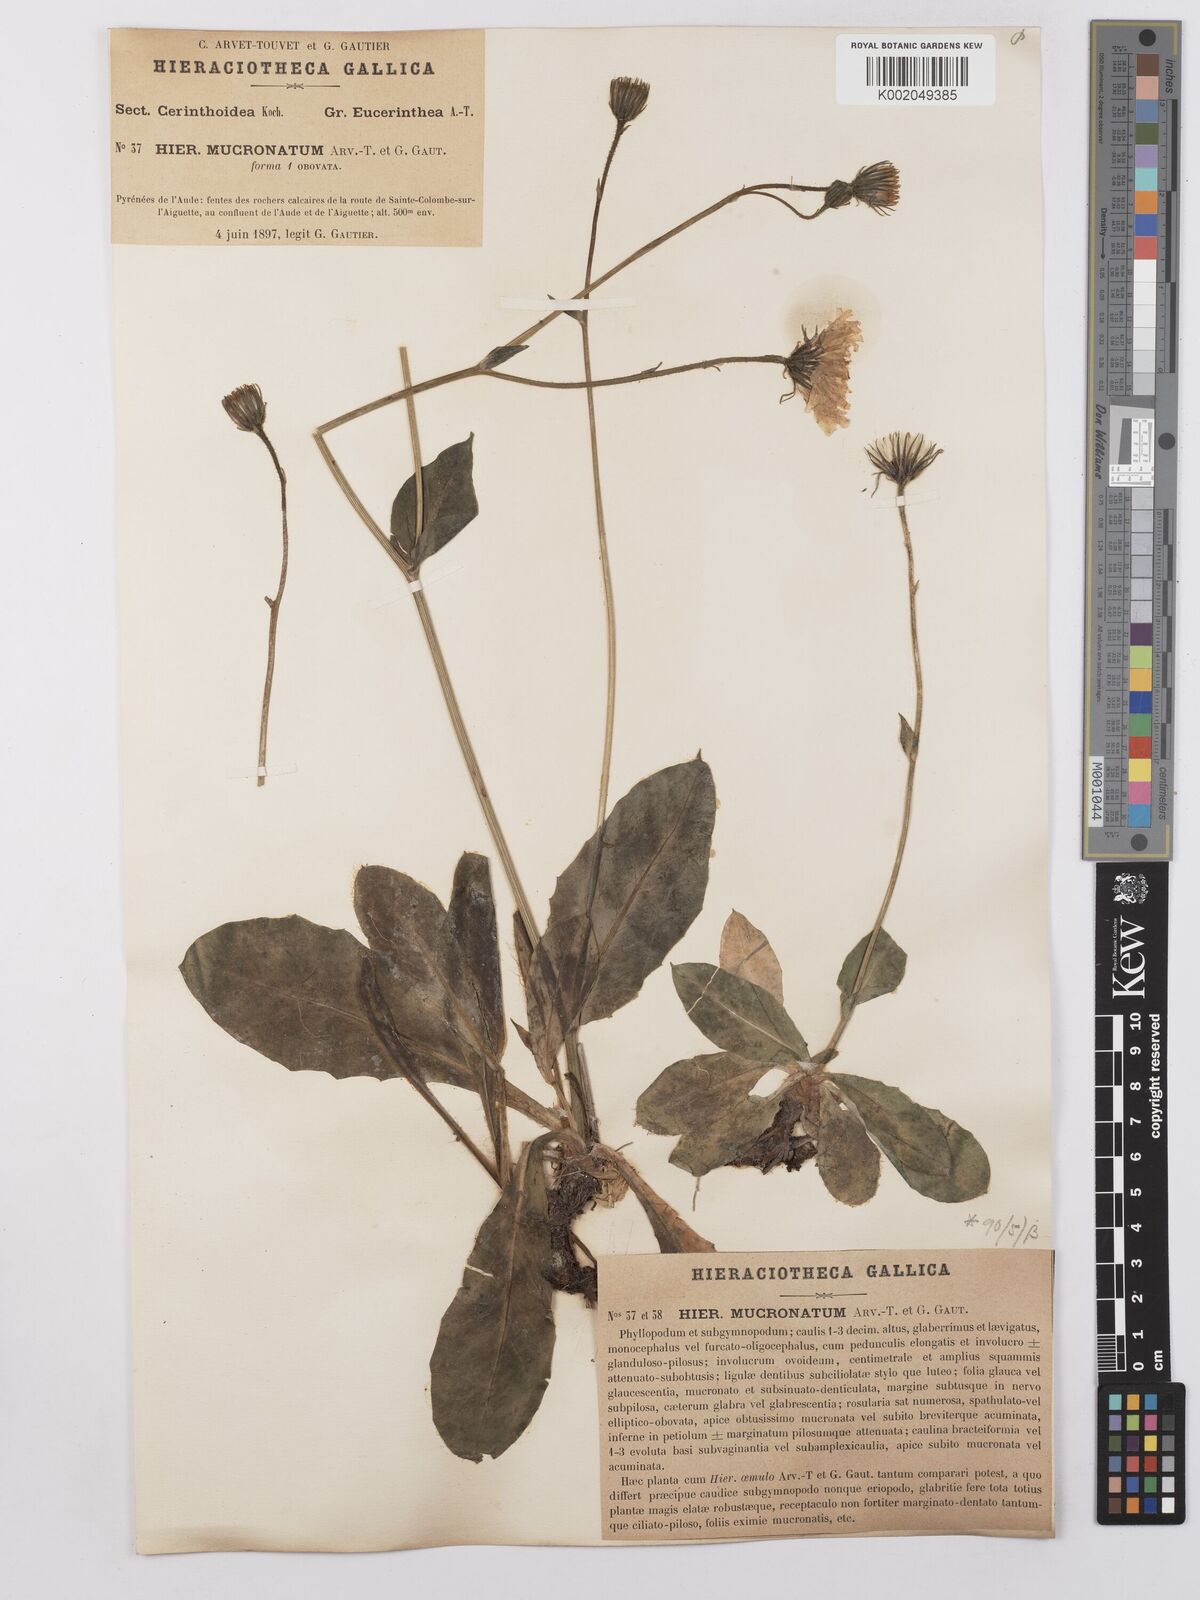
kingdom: Plantae
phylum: Tracheophyta
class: Magnoliopsida
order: Asterales
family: Asteraceae
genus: Hieracium
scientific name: Hieracium mucronatum
